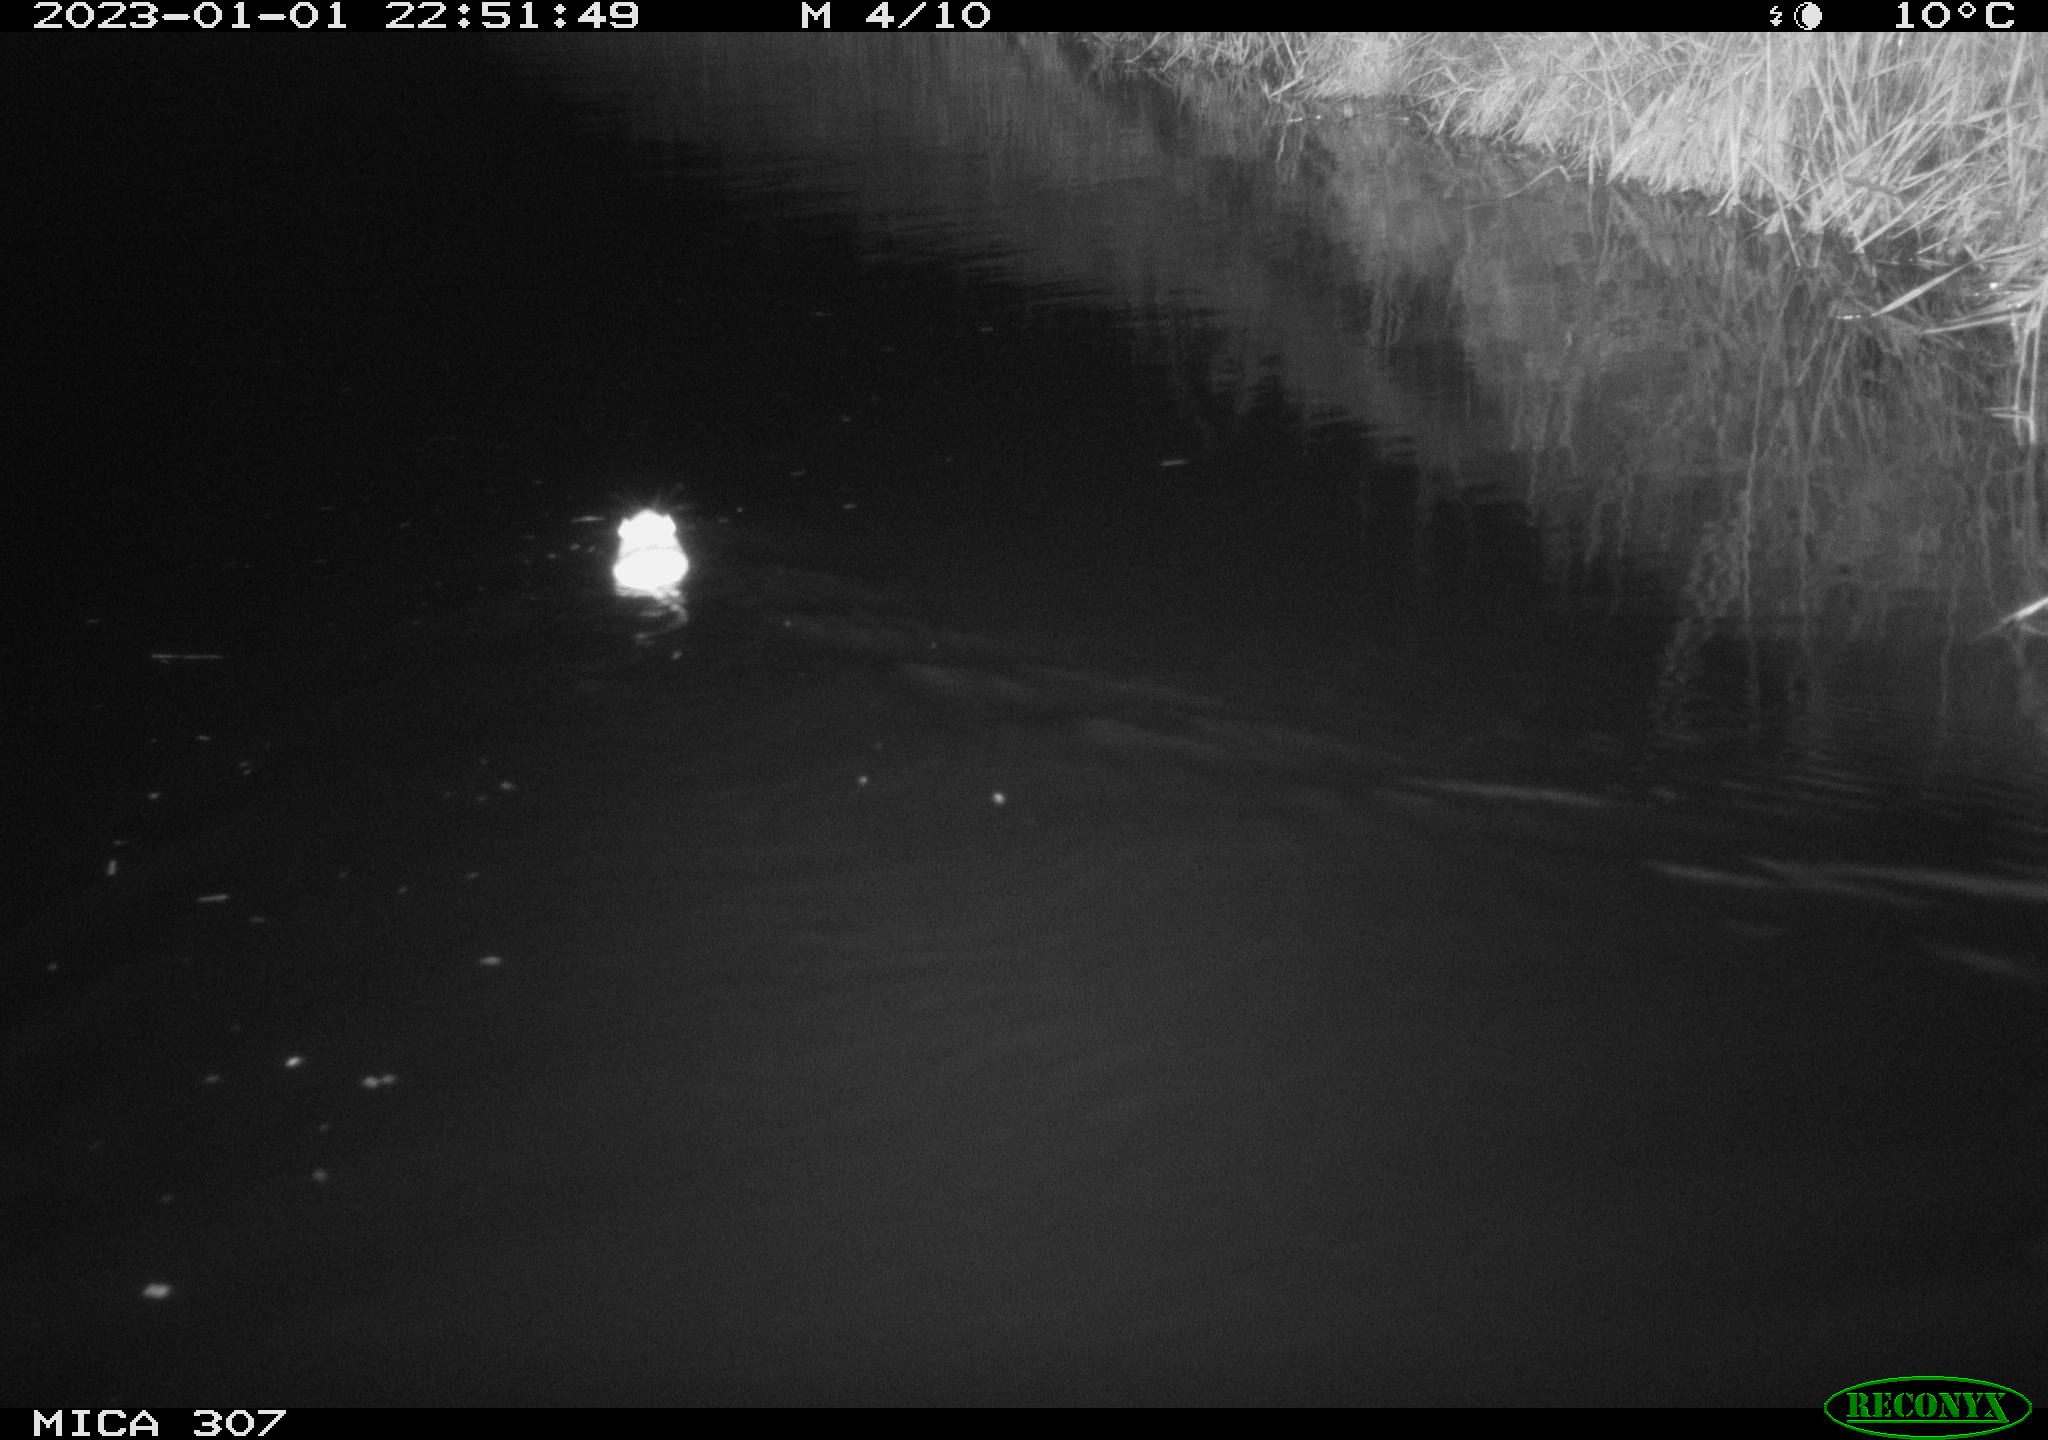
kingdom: Animalia
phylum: Chordata
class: Mammalia
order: Rodentia
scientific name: Rodentia
